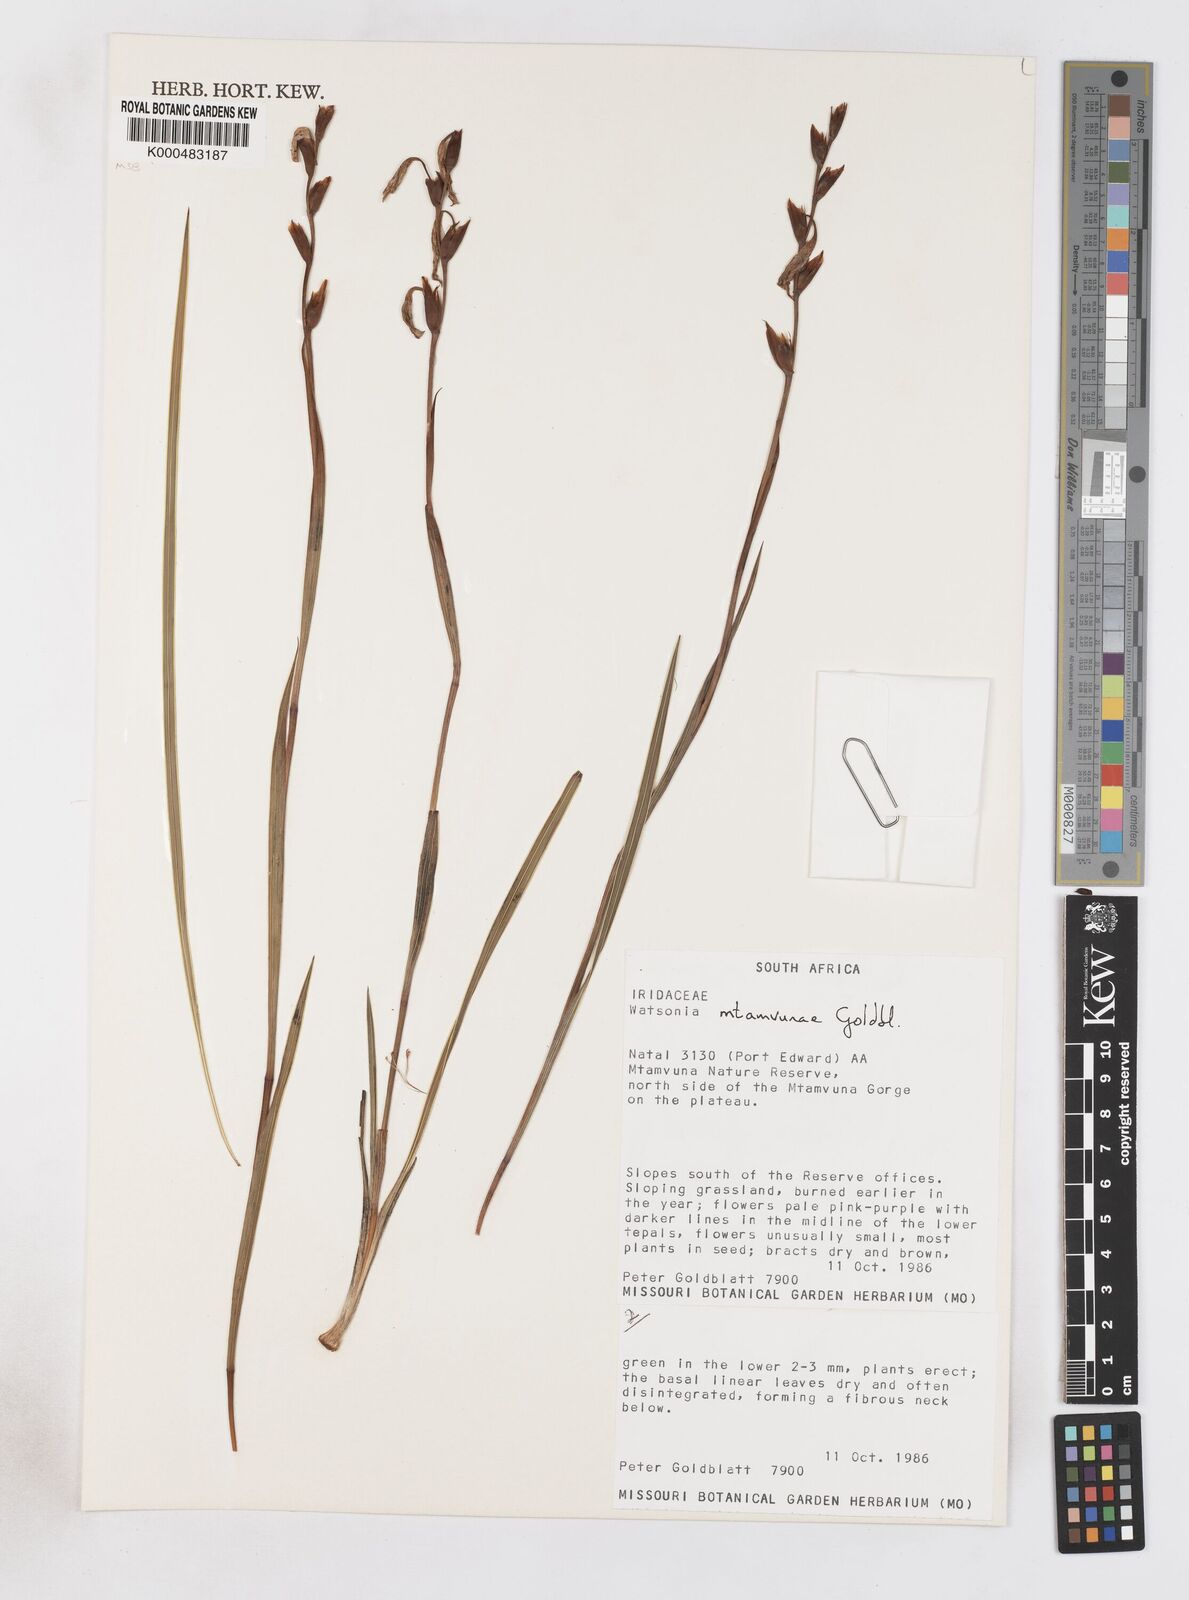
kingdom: Plantae
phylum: Tracheophyta
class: Liliopsida
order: Asparagales
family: Iridaceae
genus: Watsonia
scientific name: Watsonia mtamvunae
